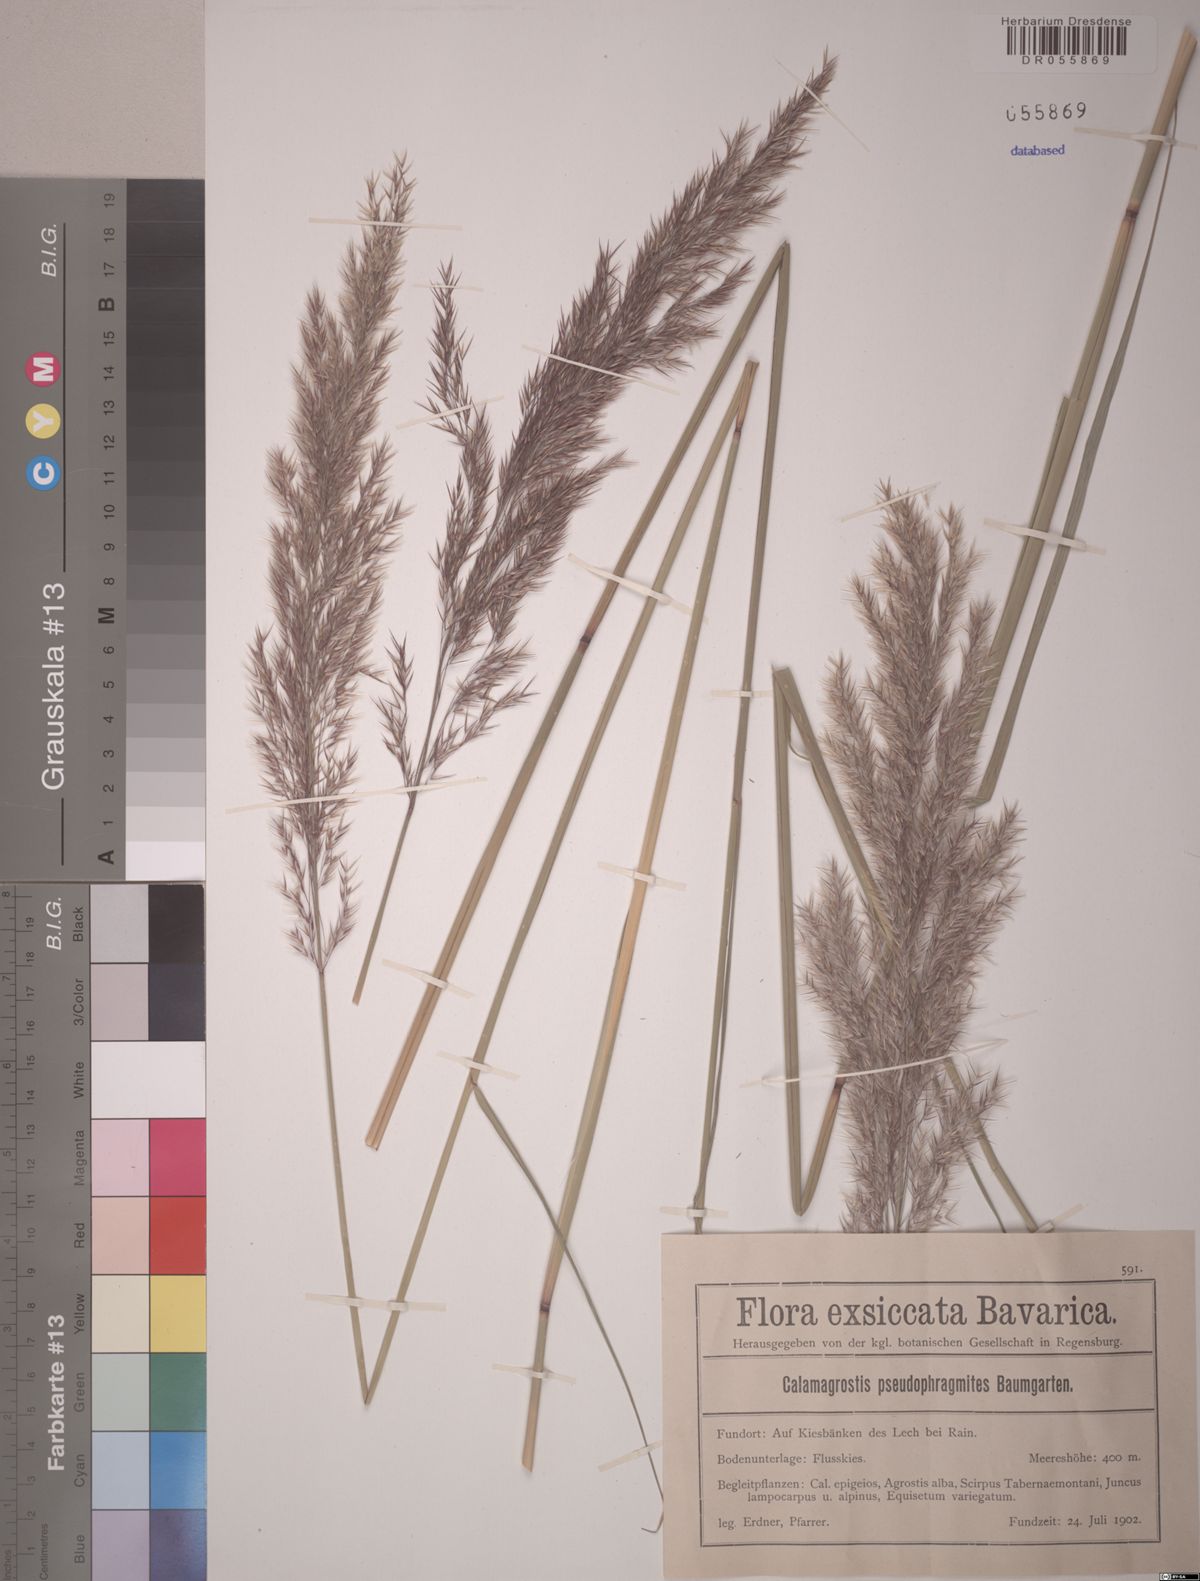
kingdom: Plantae
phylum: Tracheophyta
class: Liliopsida
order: Poales
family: Poaceae
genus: Calamagrostis
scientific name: Calamagrostis pseudophragmites
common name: Coastal small-reed
